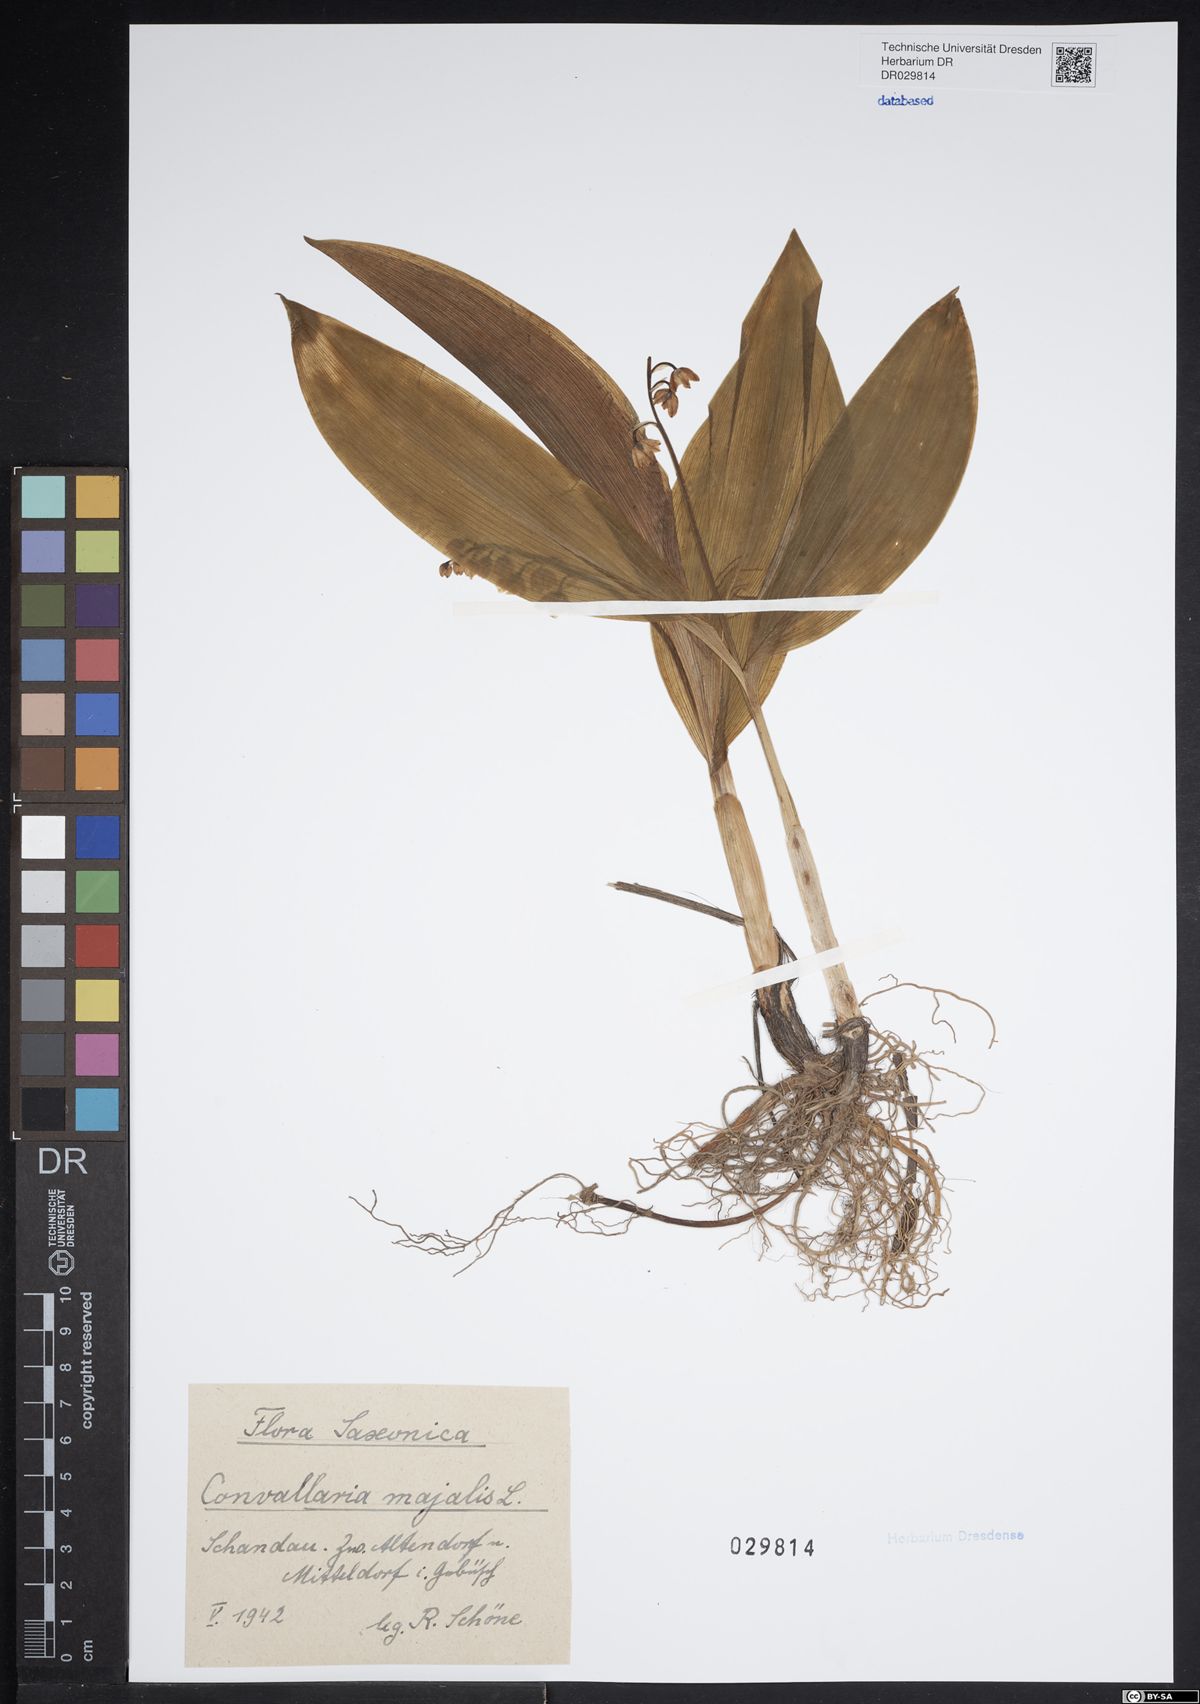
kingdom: Plantae
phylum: Tracheophyta
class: Liliopsida
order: Asparagales
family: Asparagaceae
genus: Convallaria
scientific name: Convallaria majalis
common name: Lily-of-the-valley
